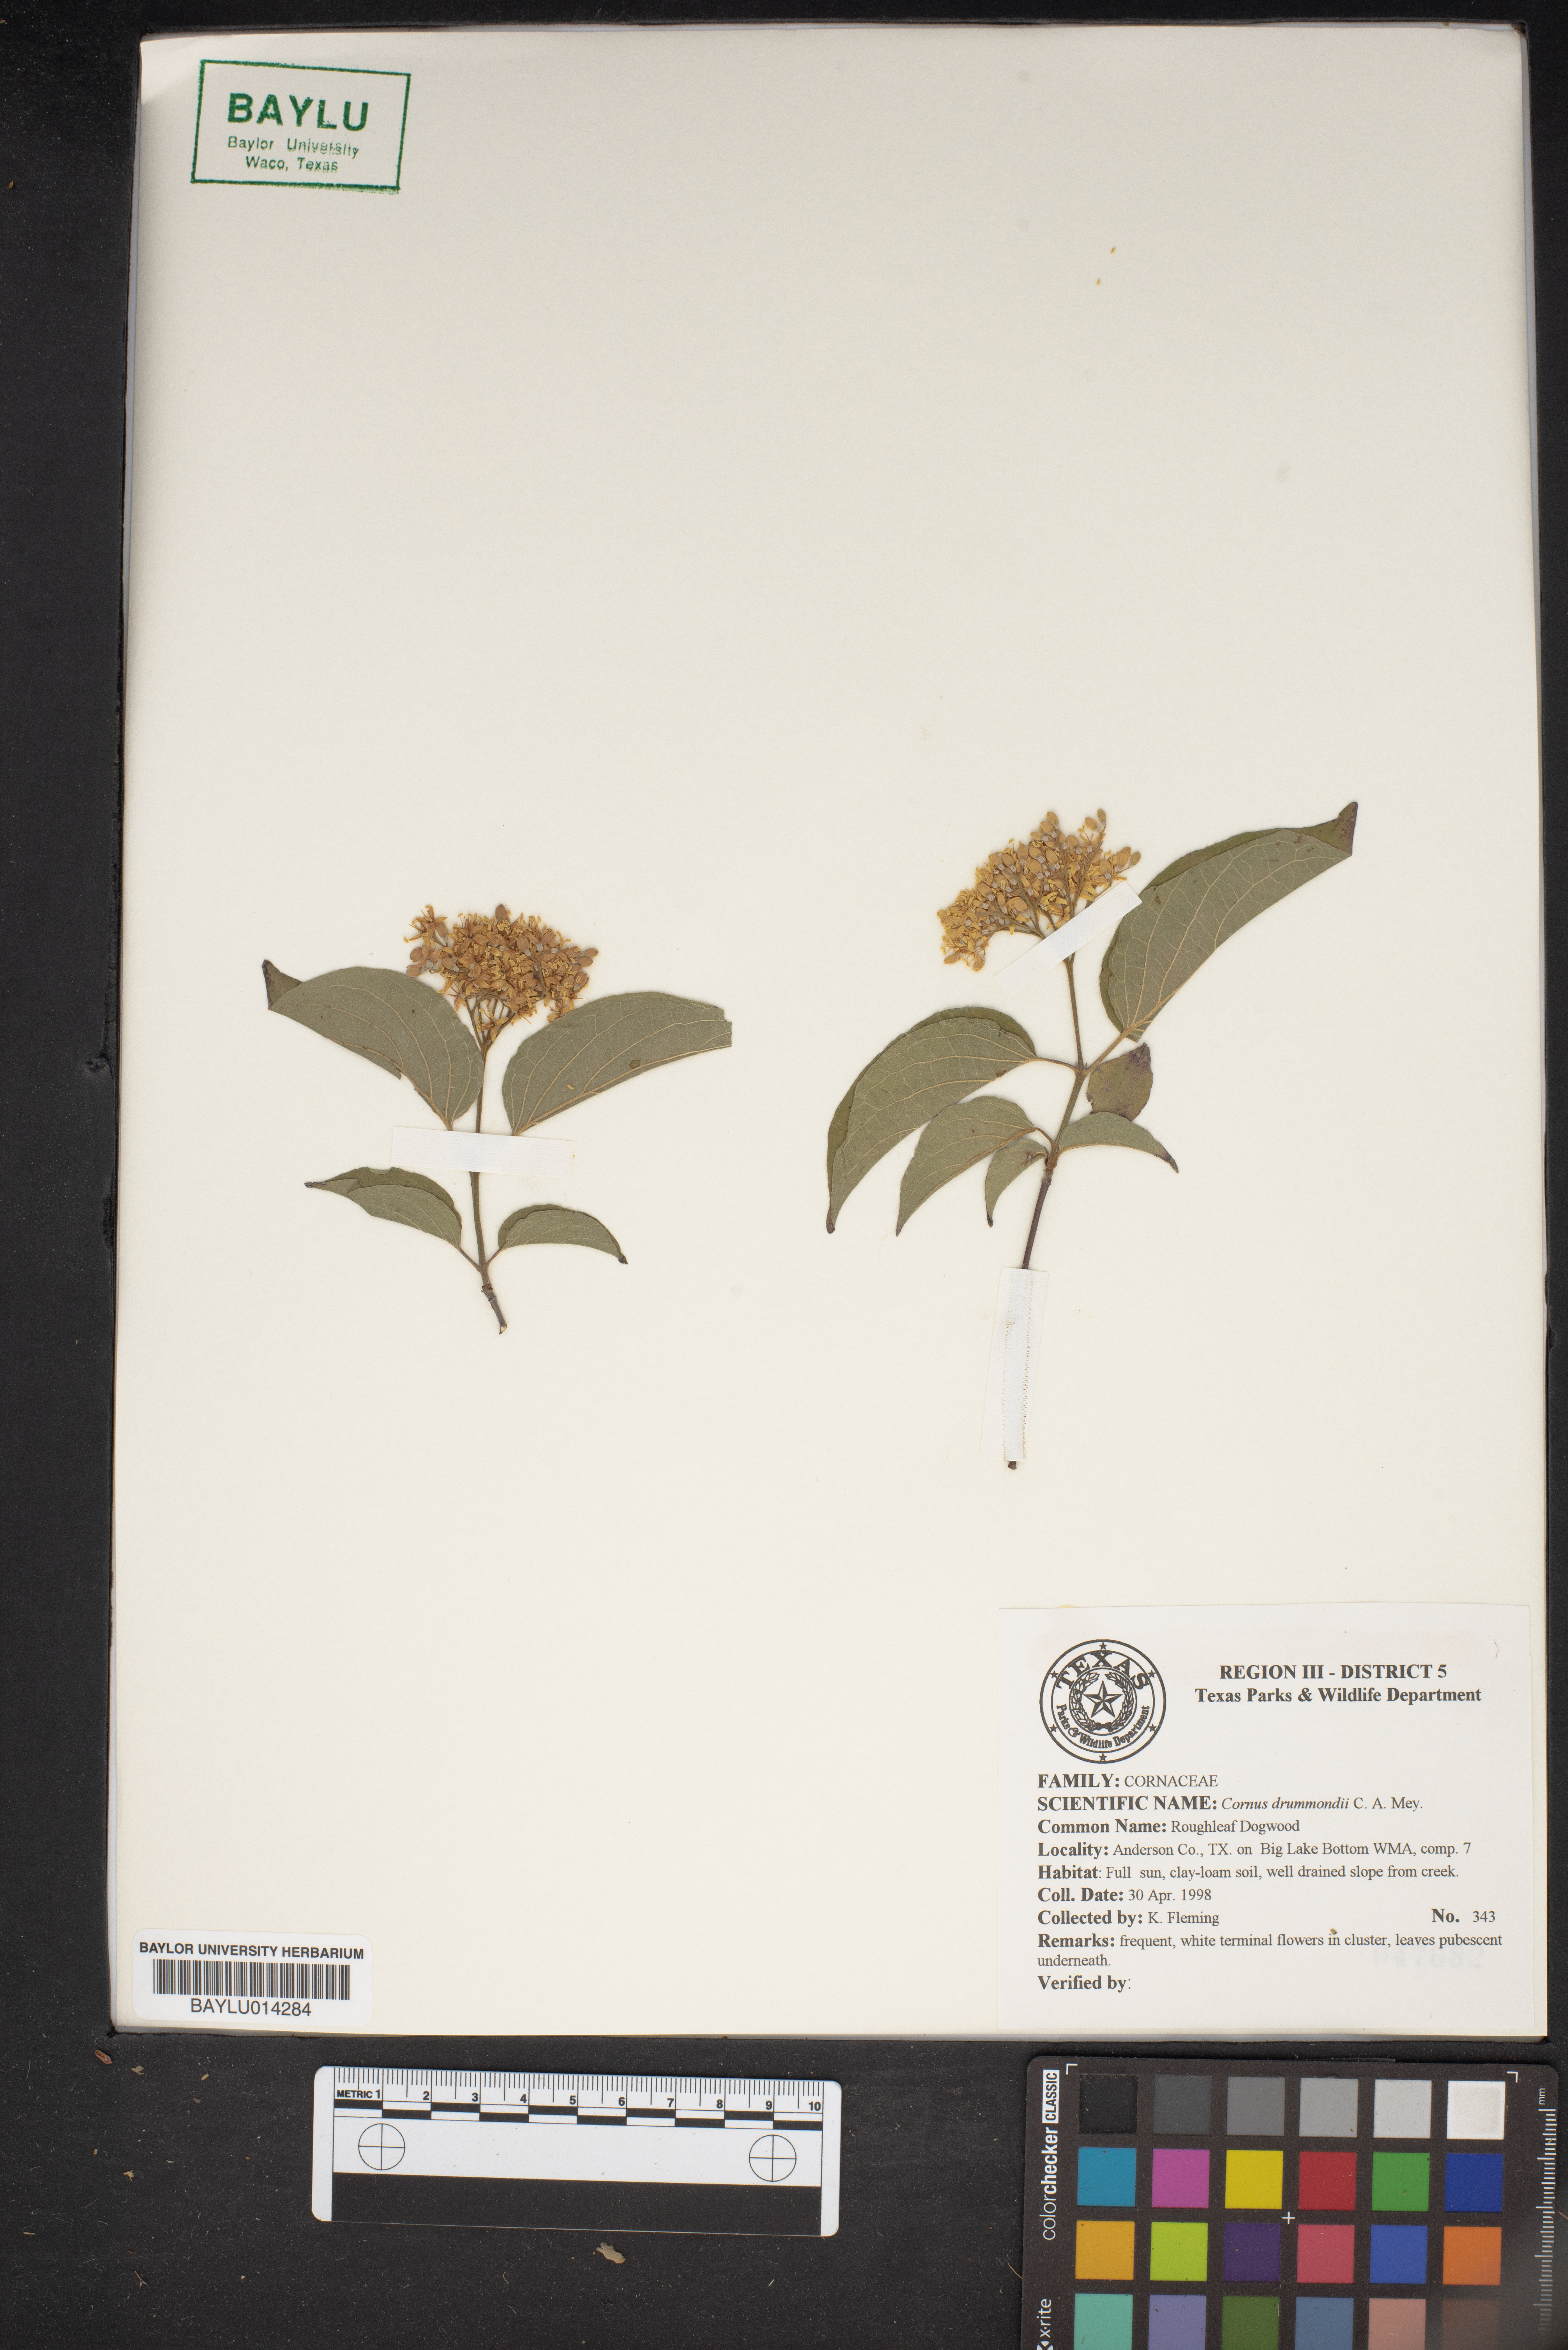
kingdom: Plantae
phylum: Tracheophyta
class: Magnoliopsida
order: Cornales
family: Cornaceae
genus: Cornus
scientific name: Cornus drummondii
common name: Rough-leaf dogwood
